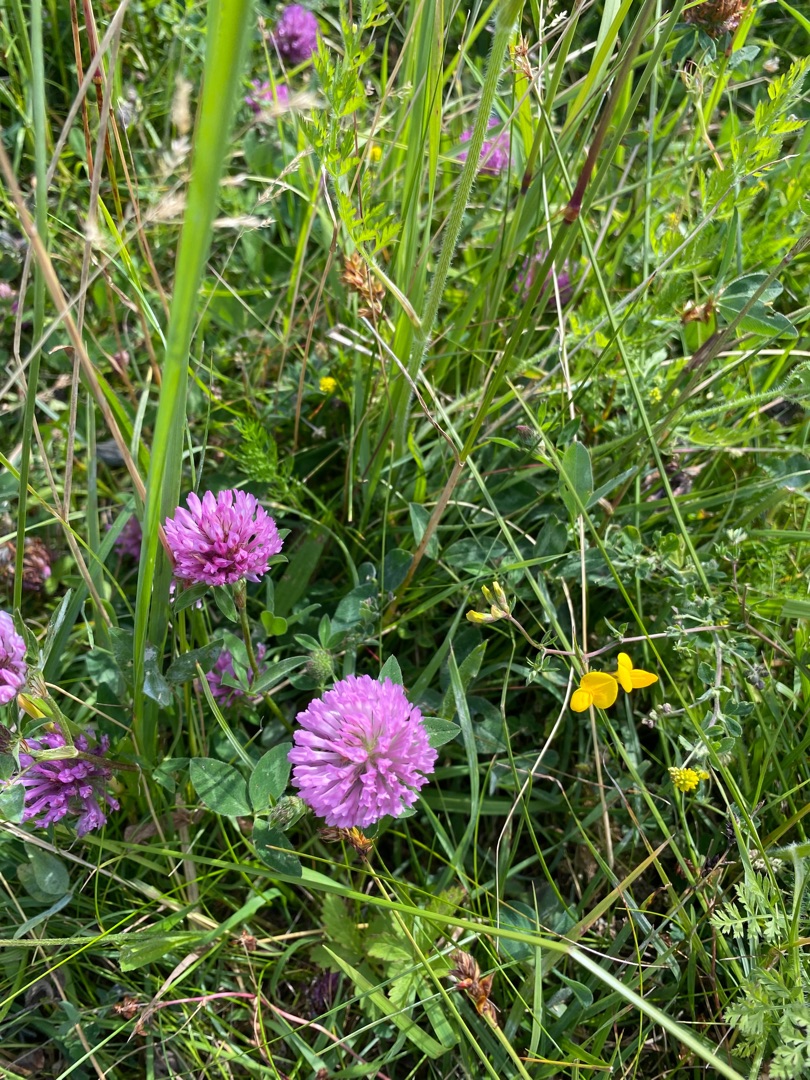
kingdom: Plantae
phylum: Tracheophyta
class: Magnoliopsida
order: Fabales
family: Fabaceae
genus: Trifolium
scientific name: Trifolium pratense
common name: Rød-kløver
